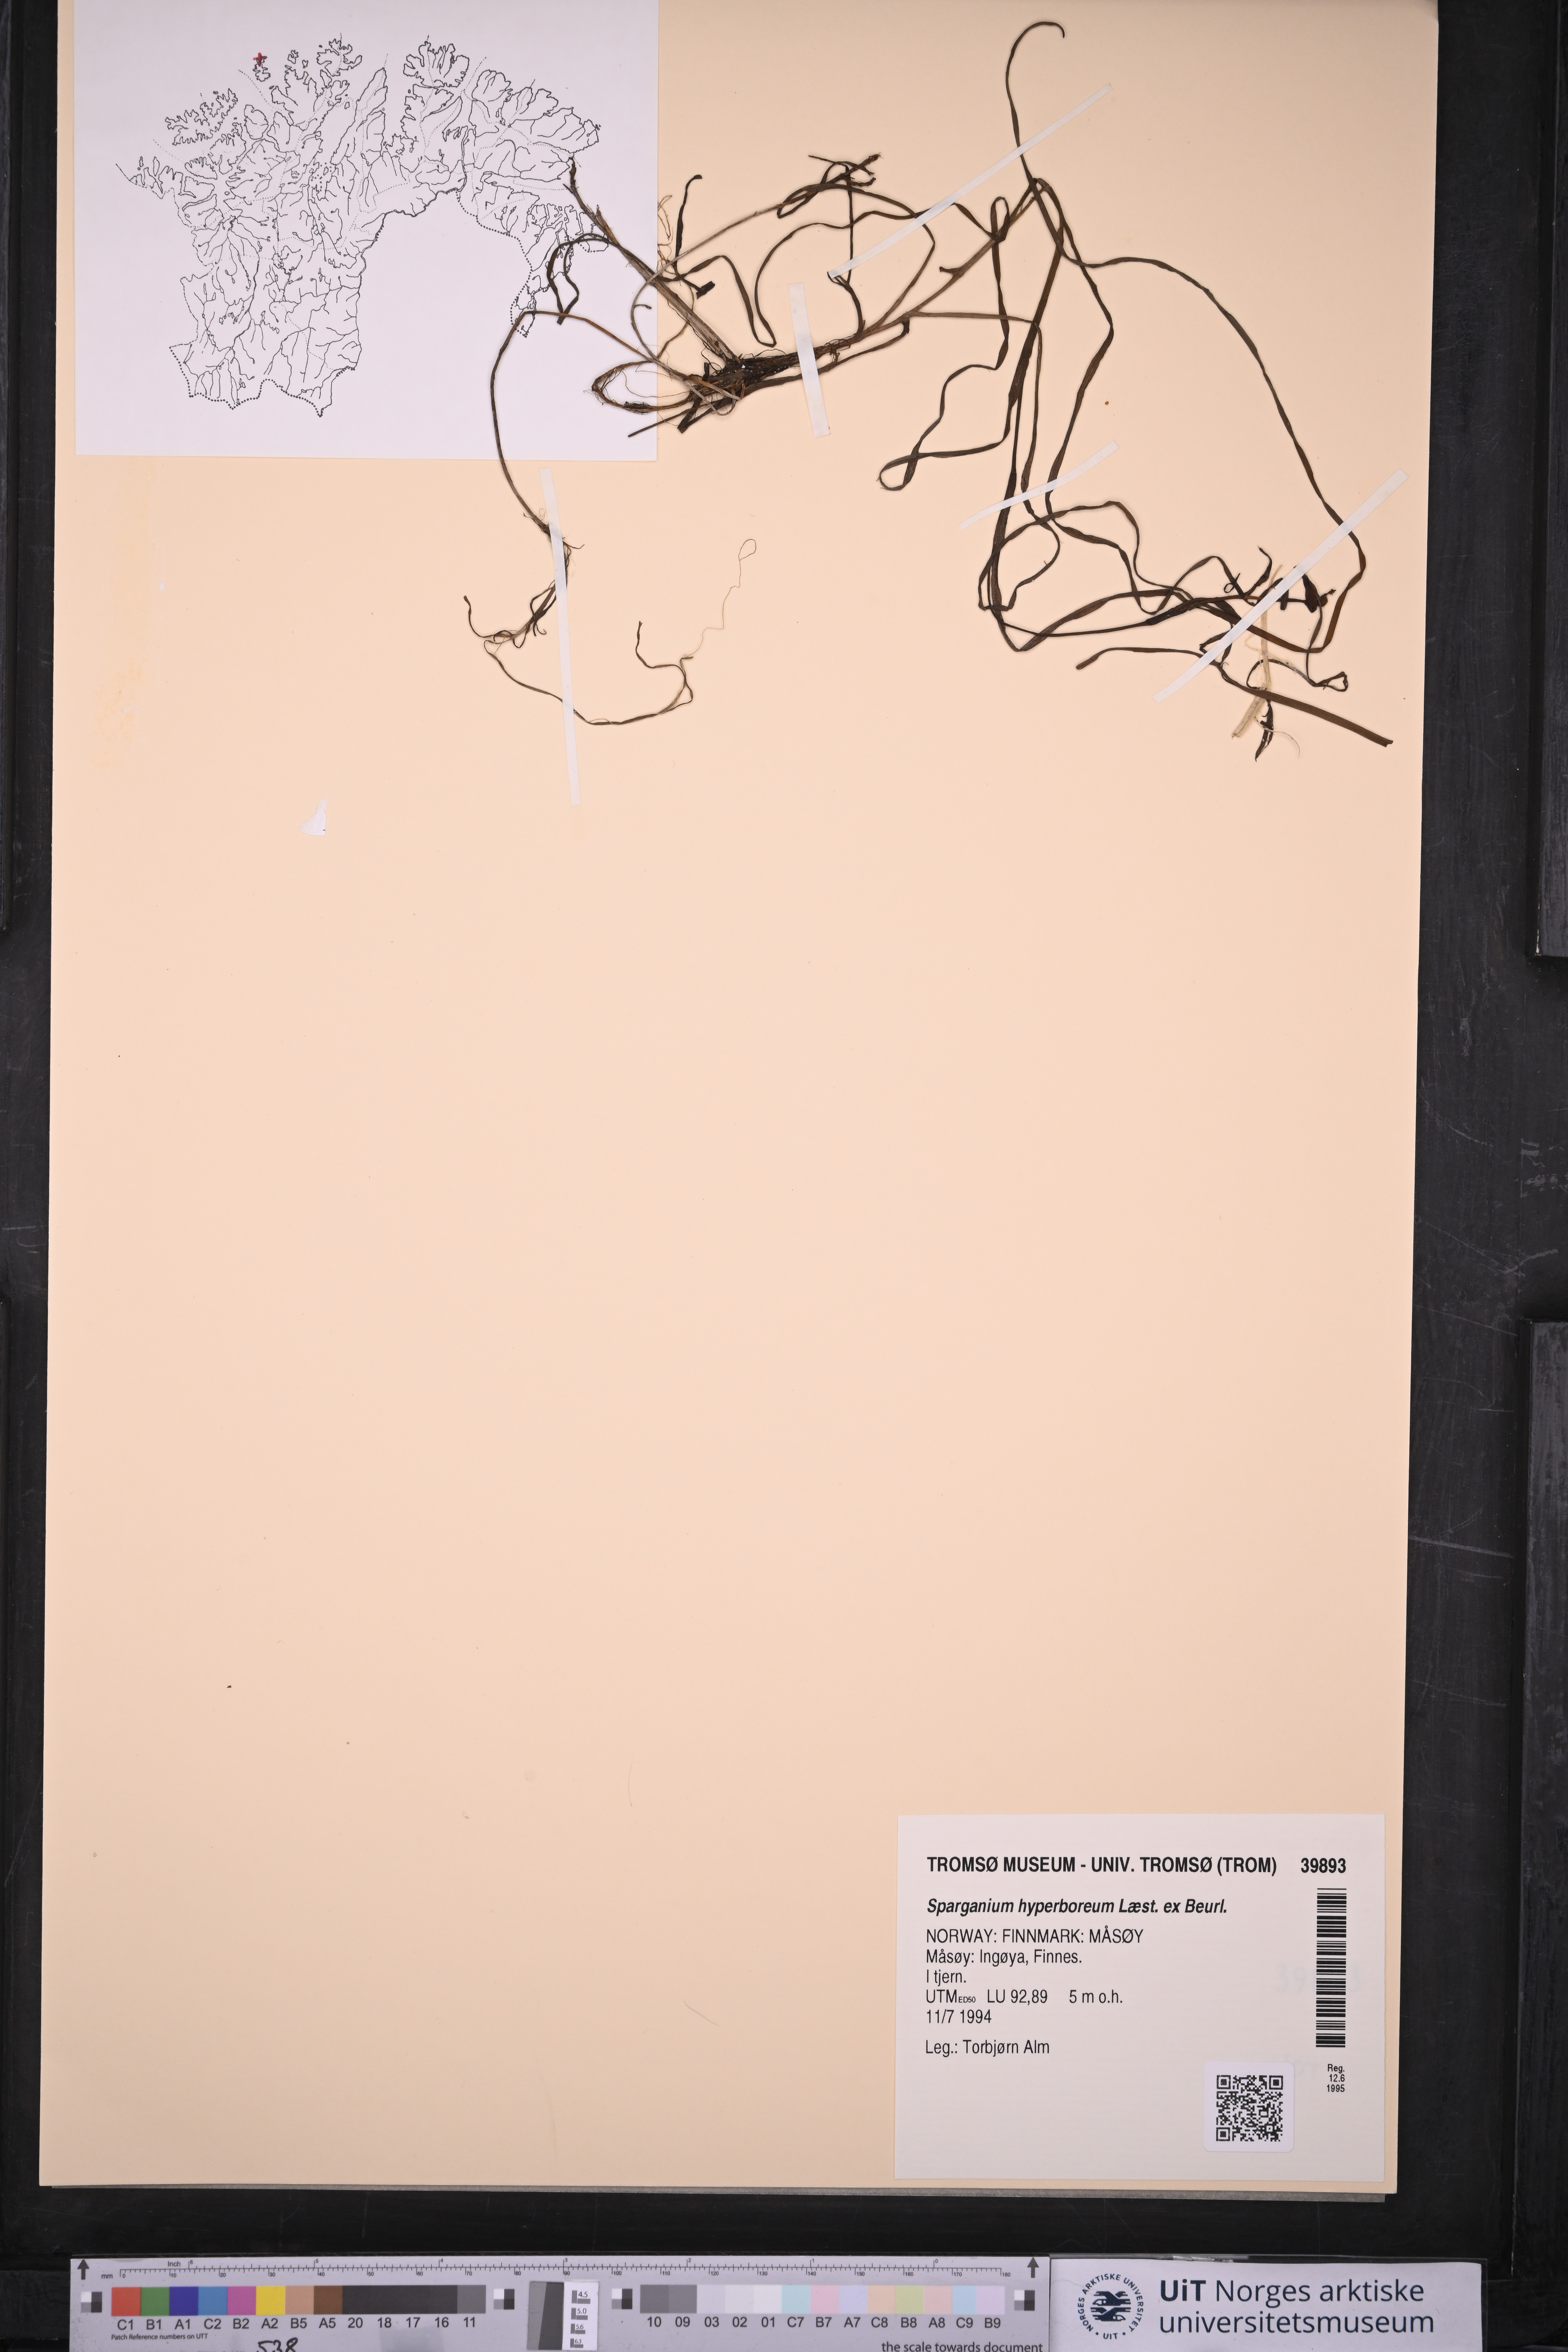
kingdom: Plantae
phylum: Tracheophyta
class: Liliopsida
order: Poales
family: Typhaceae
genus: Sparganium
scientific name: Sparganium hyperboreum
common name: Arctic burreed
